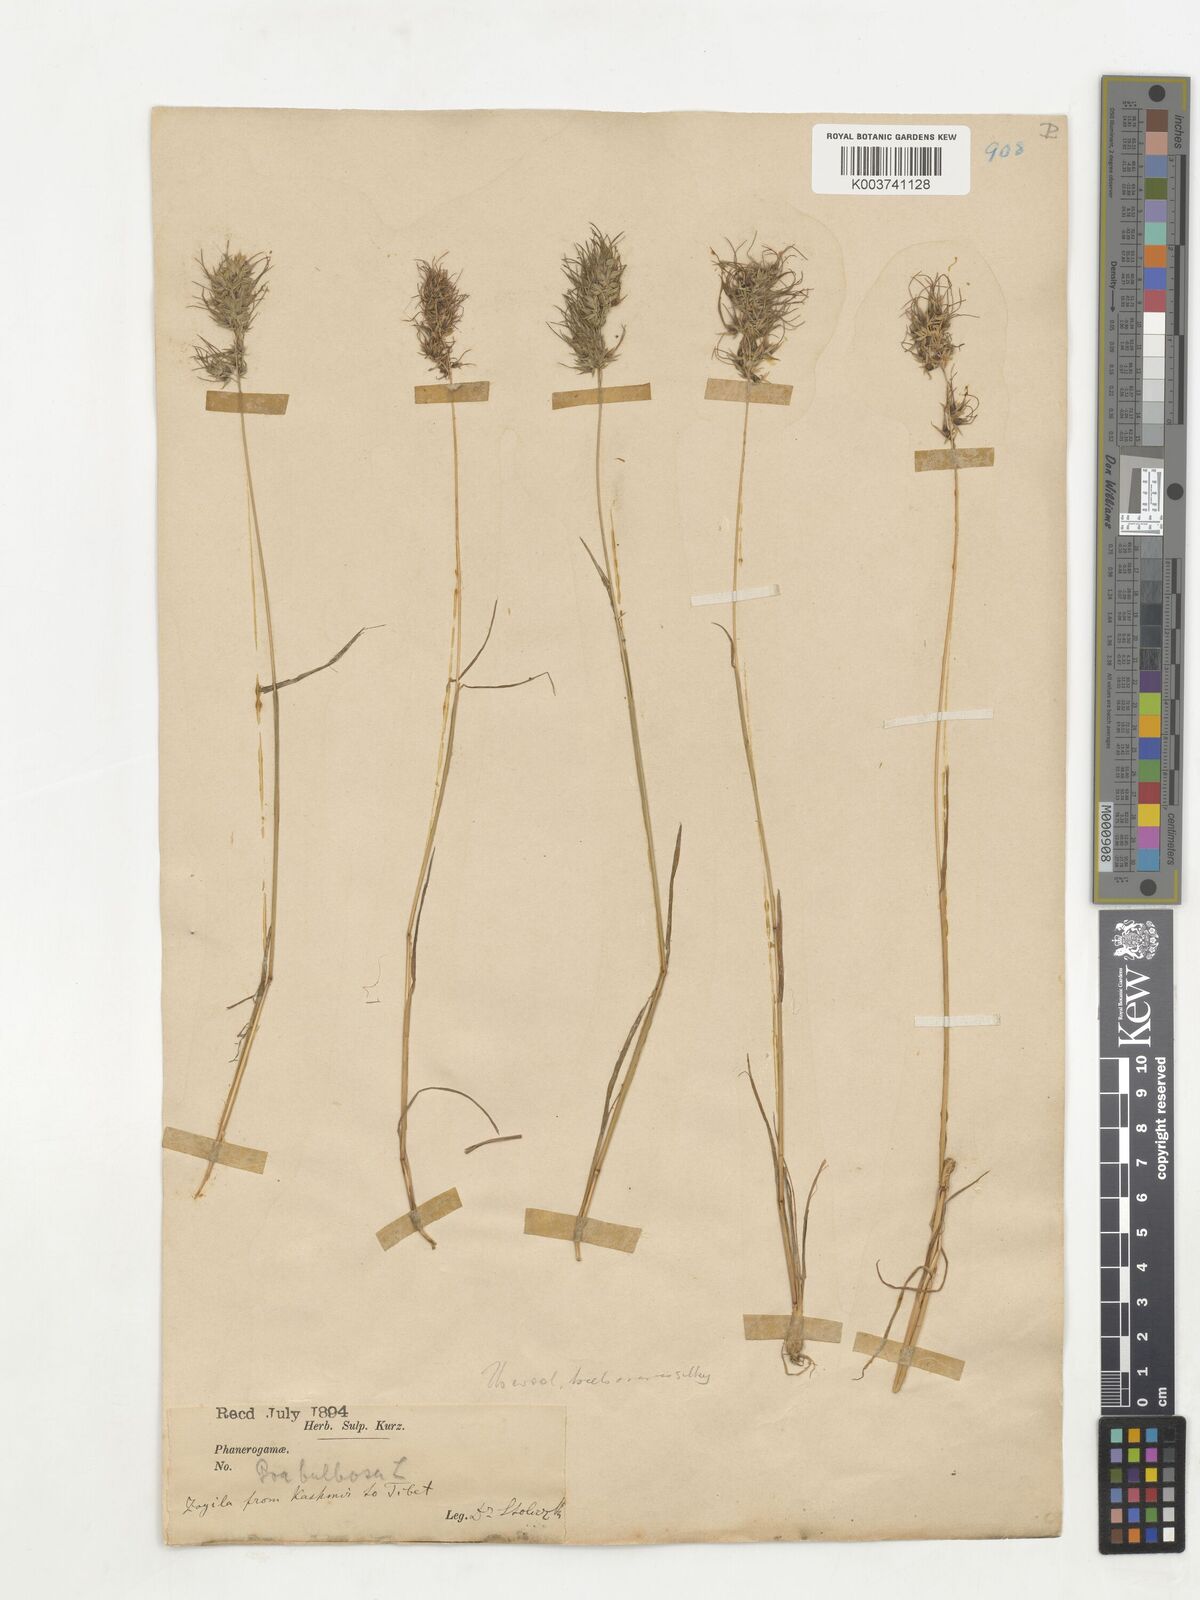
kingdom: Plantae
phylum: Tracheophyta
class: Liliopsida
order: Poales
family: Poaceae
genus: Poa
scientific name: Poa sinaica
